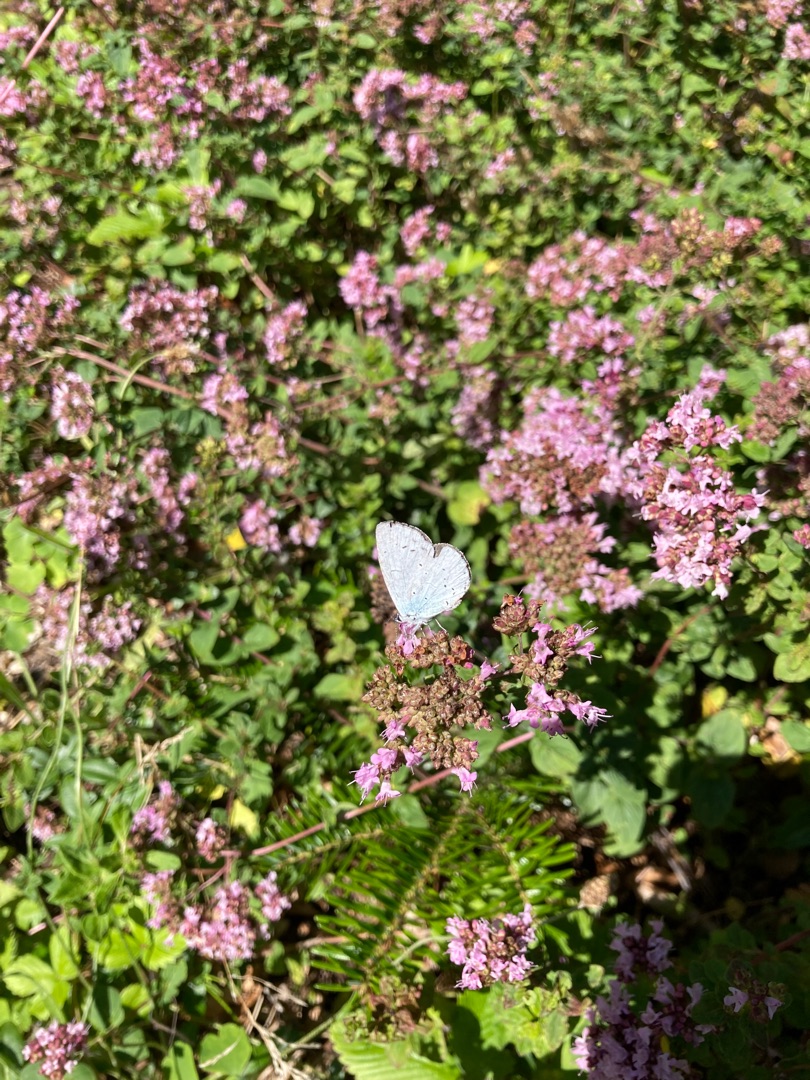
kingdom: Animalia
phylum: Arthropoda
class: Insecta
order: Lepidoptera
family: Lycaenidae
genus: Celastrina
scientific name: Celastrina argiolus
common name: Skovblåfugl
